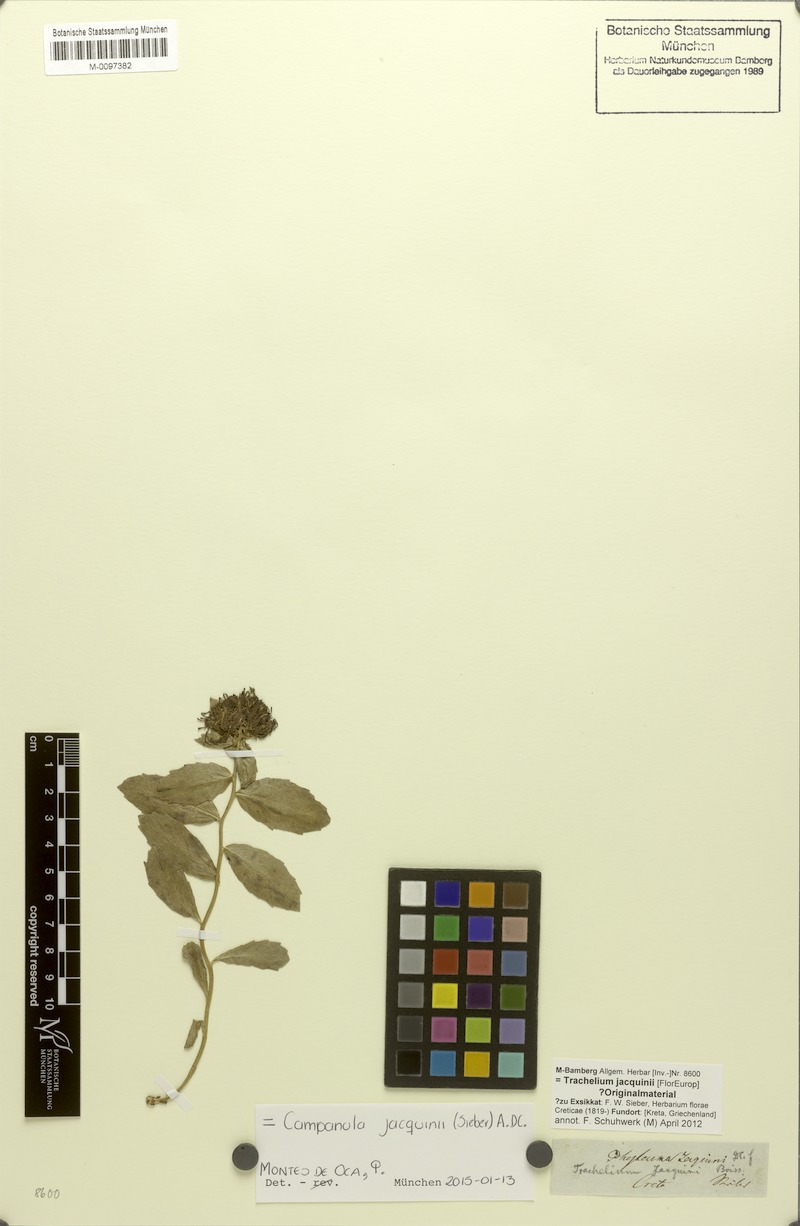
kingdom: Plantae
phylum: Tracheophyta
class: Magnoliopsida
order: Asterales
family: Campanulaceae
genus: Campanula
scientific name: Campanula jacquinii
